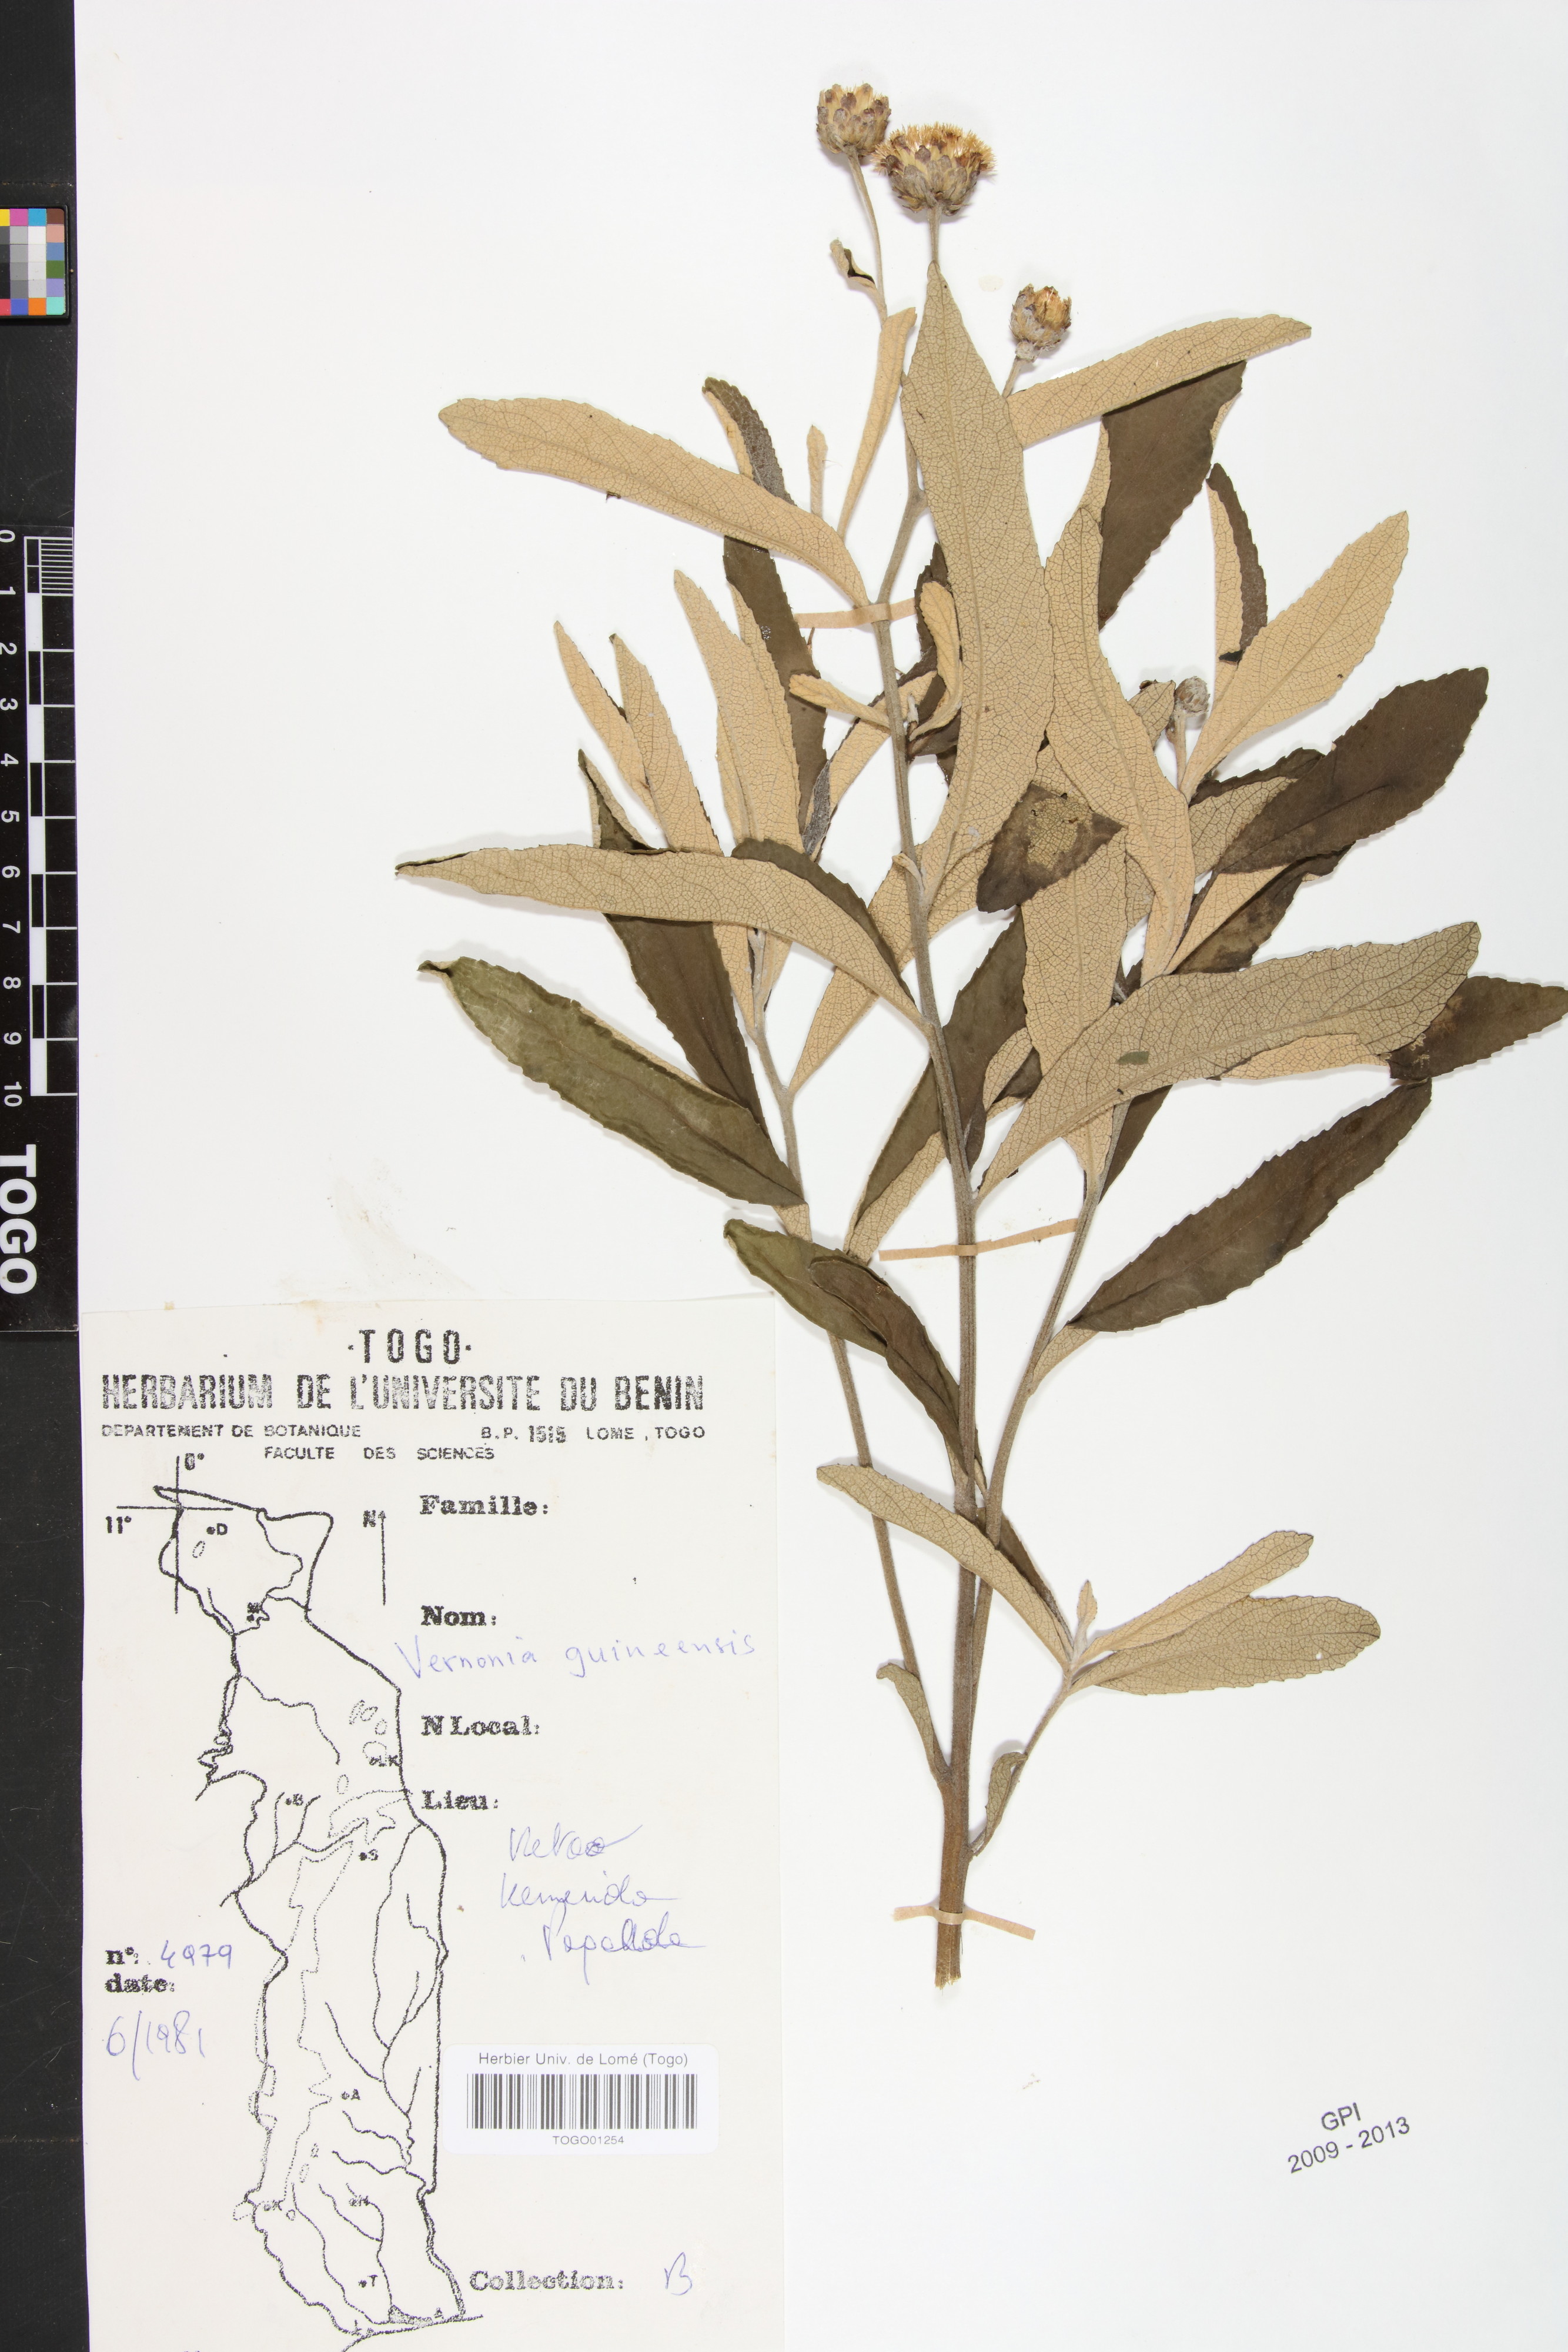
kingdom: Plantae
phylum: Tracheophyta
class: Magnoliopsida
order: Asterales
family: Asteraceae
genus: Baccharoides
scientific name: Baccharoides guineensis
